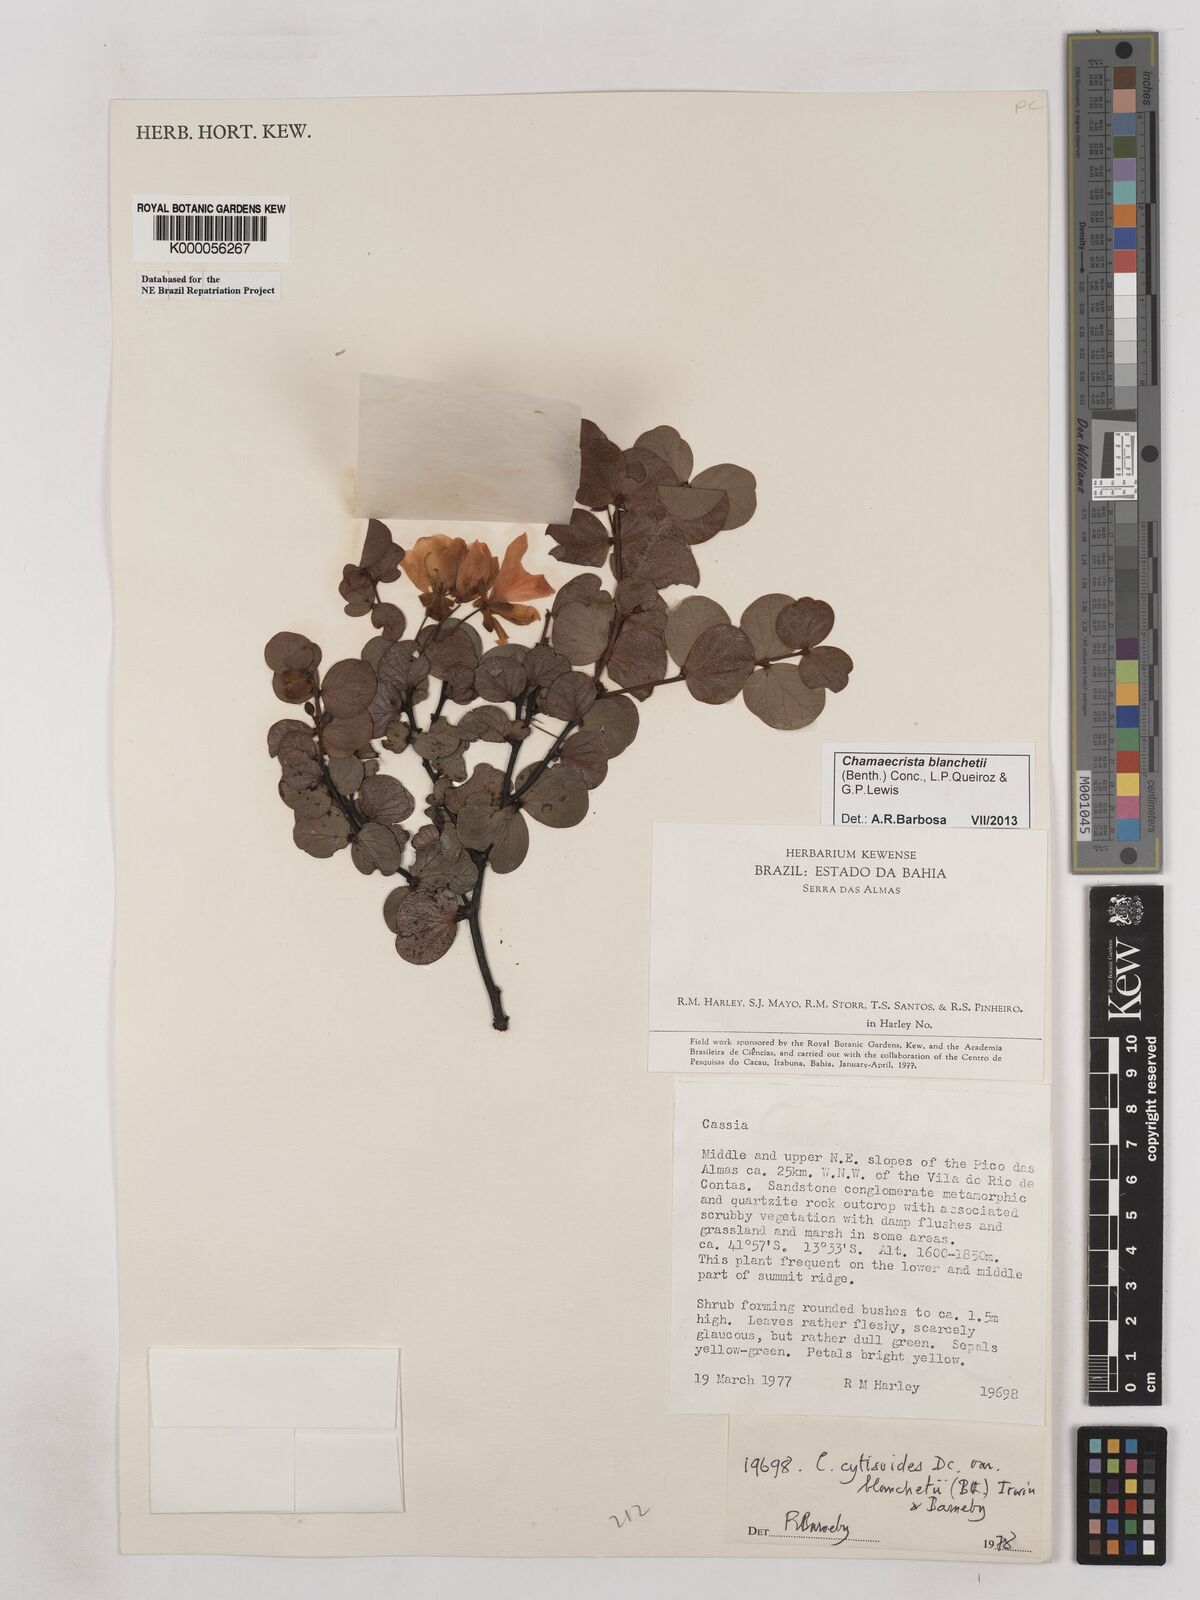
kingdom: Plantae
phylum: Tracheophyta
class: Magnoliopsida
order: Fabales
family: Fabaceae
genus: Chamaecrista
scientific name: Chamaecrista cytisoides
